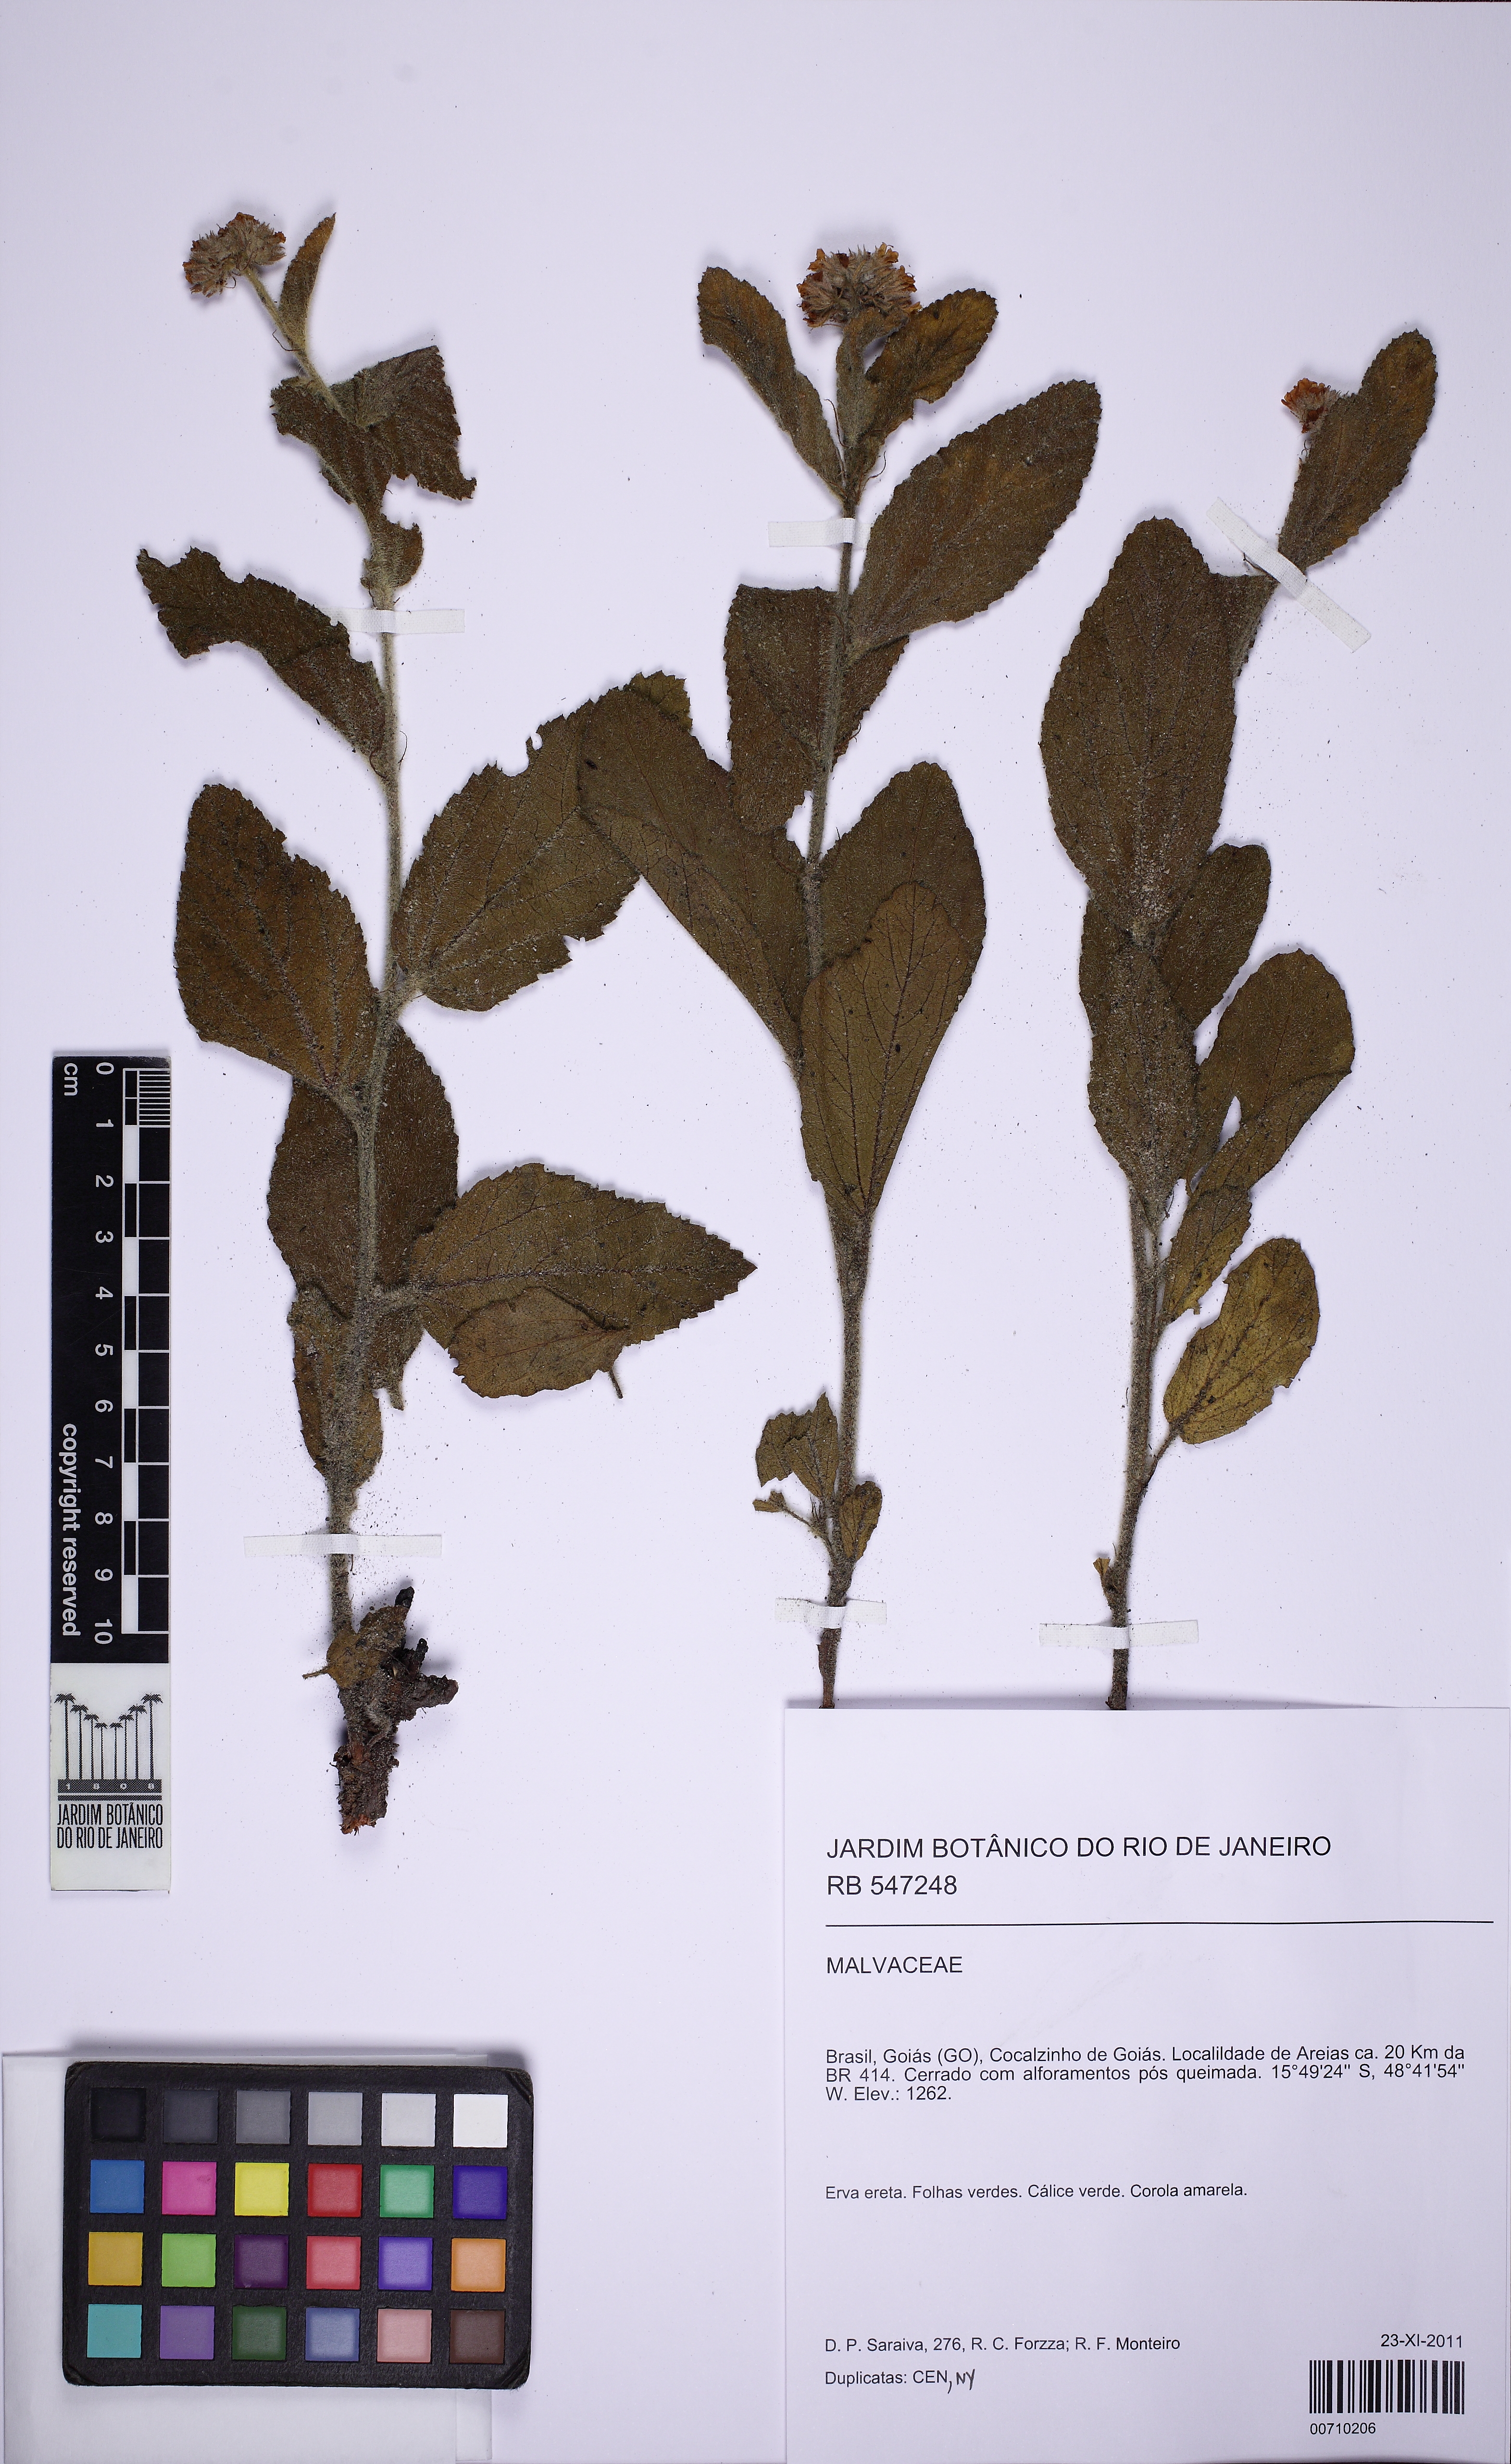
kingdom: Plantae
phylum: Tracheophyta
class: Magnoliopsida
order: Malvales
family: Malvaceae
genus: Waltheria
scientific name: Waltheria communis
